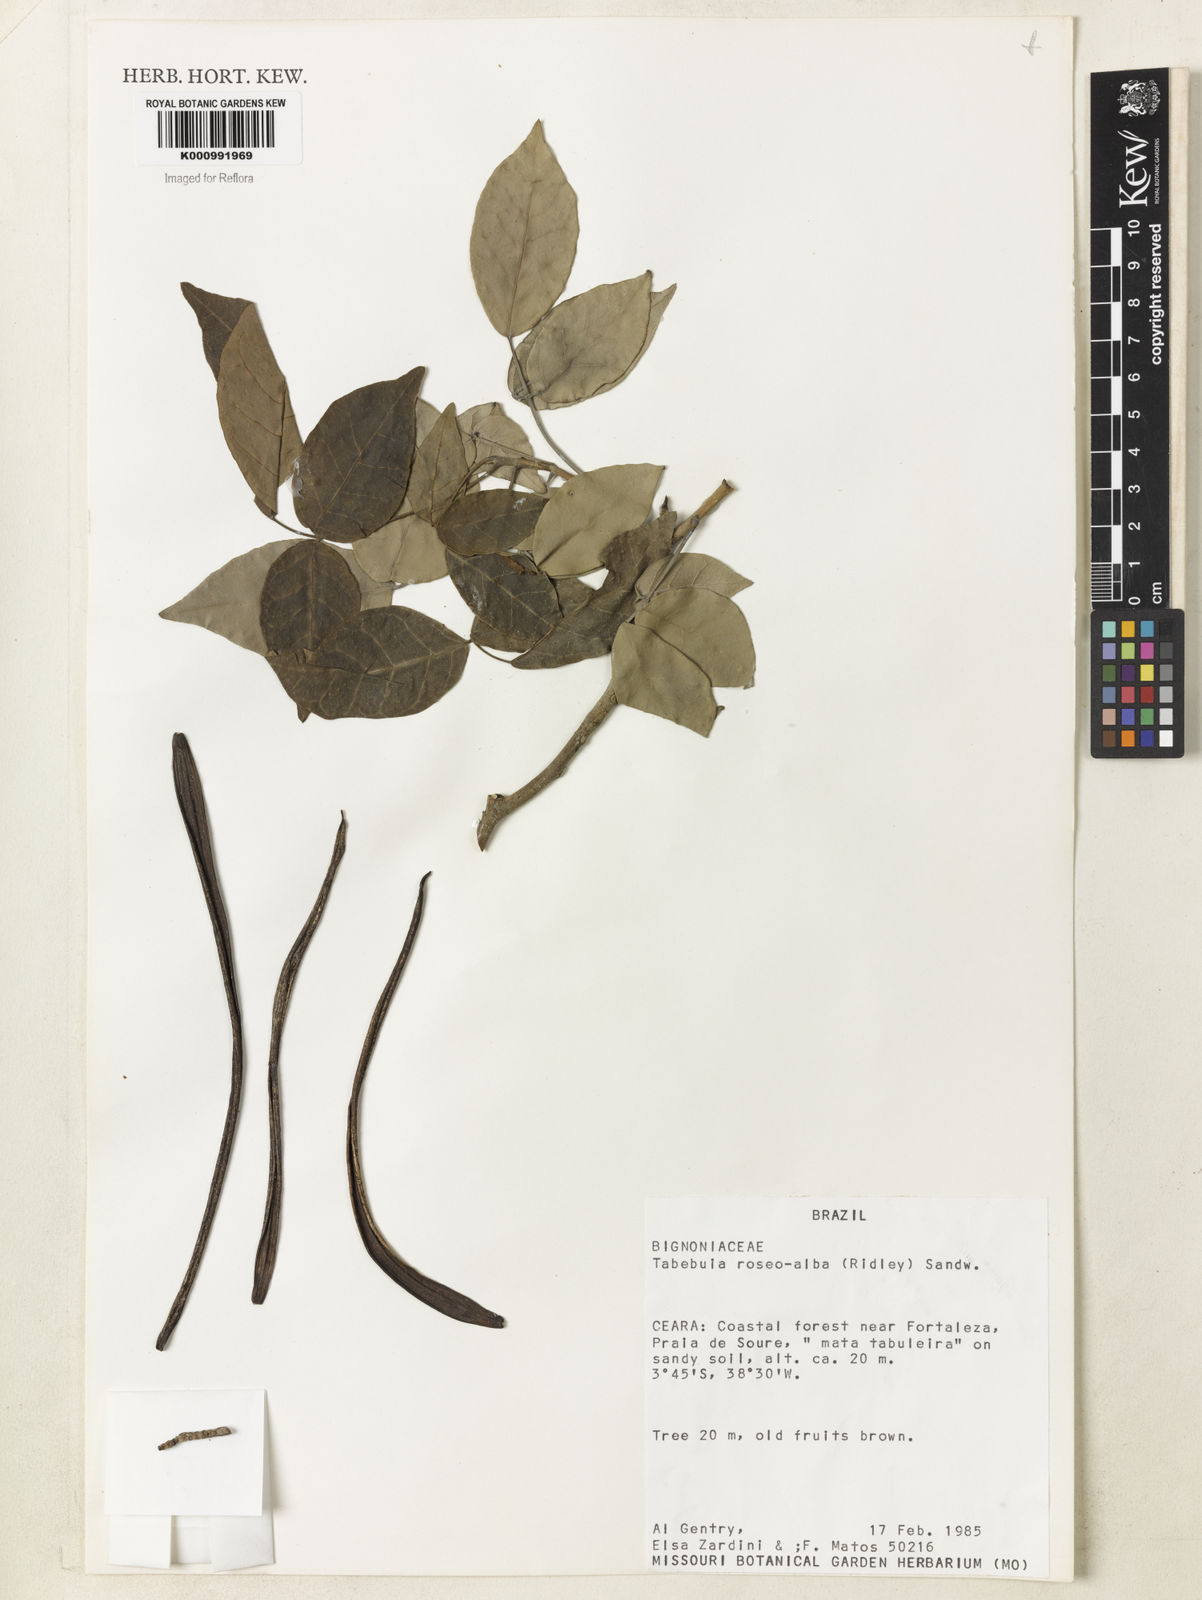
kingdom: Plantae
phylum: Tracheophyta
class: Magnoliopsida
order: Lamiales
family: Bignoniaceae
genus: Tabebuia
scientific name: Tabebuia roseoalba
